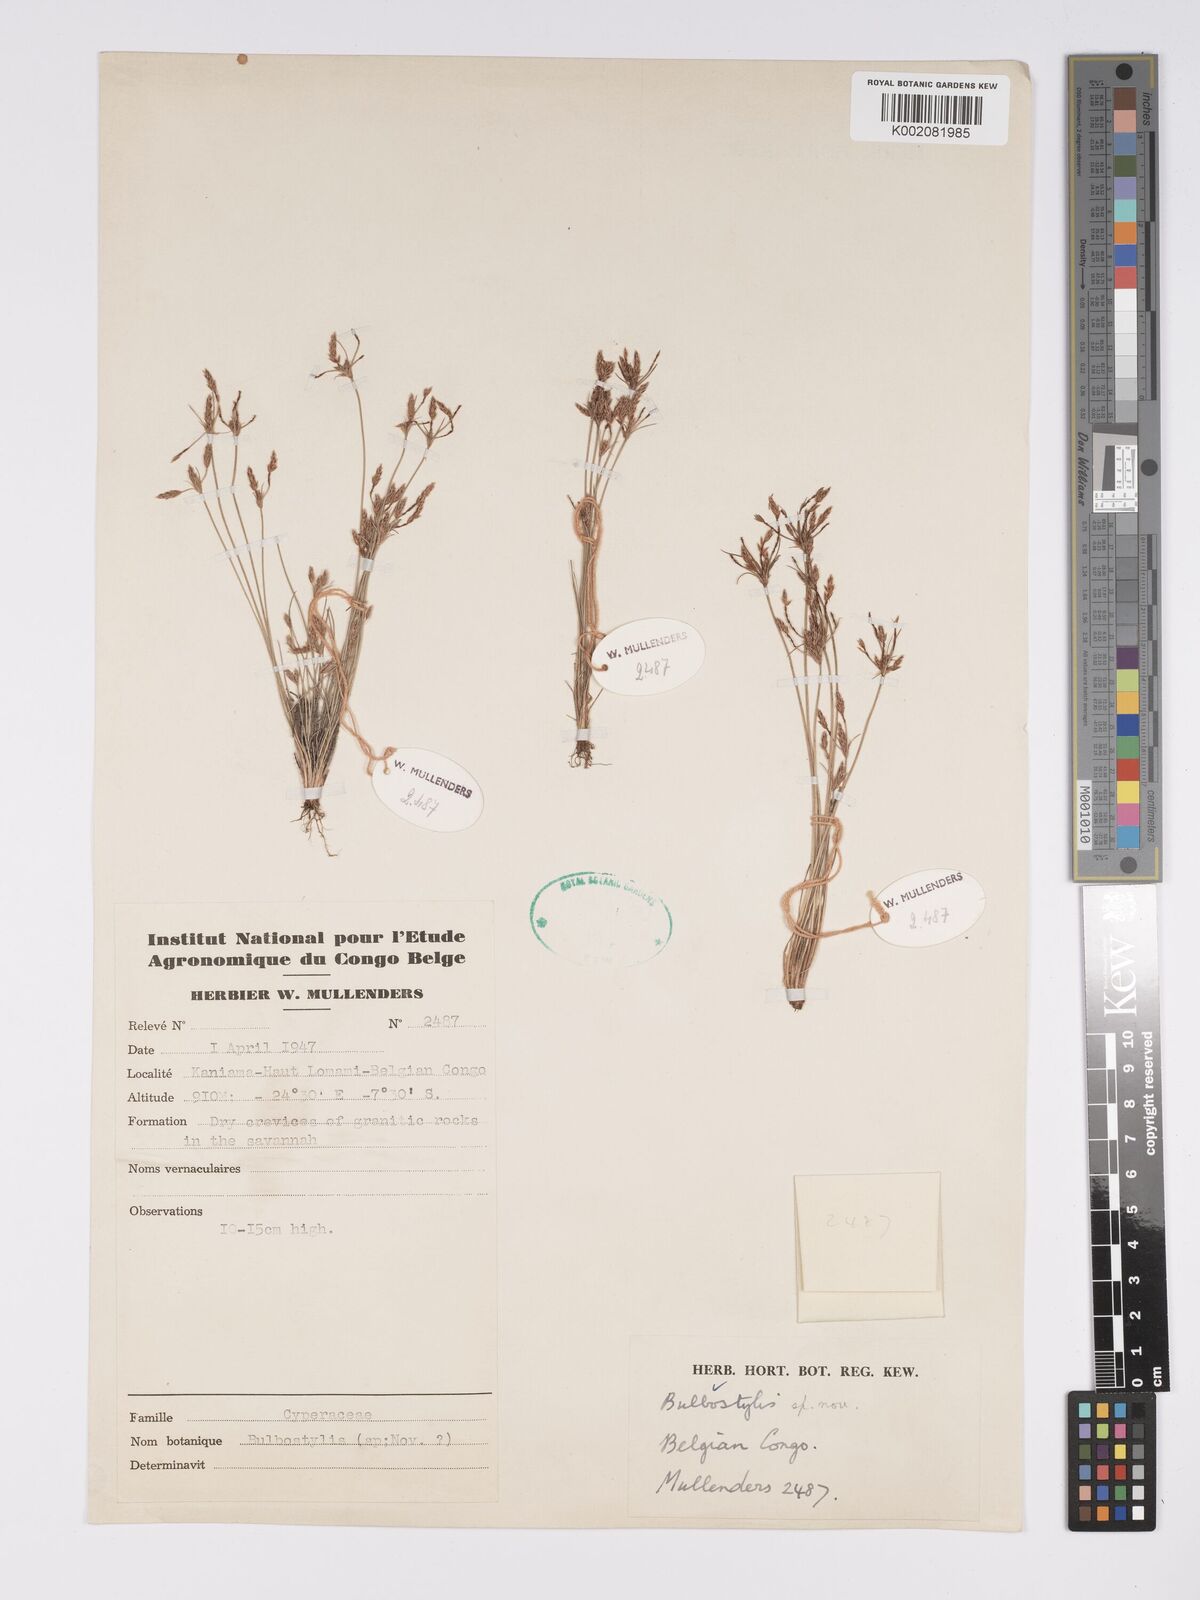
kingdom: Plantae
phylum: Tracheophyta
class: Liliopsida
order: Poales
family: Cyperaceae
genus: Bulbostylis
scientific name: Bulbostylis
